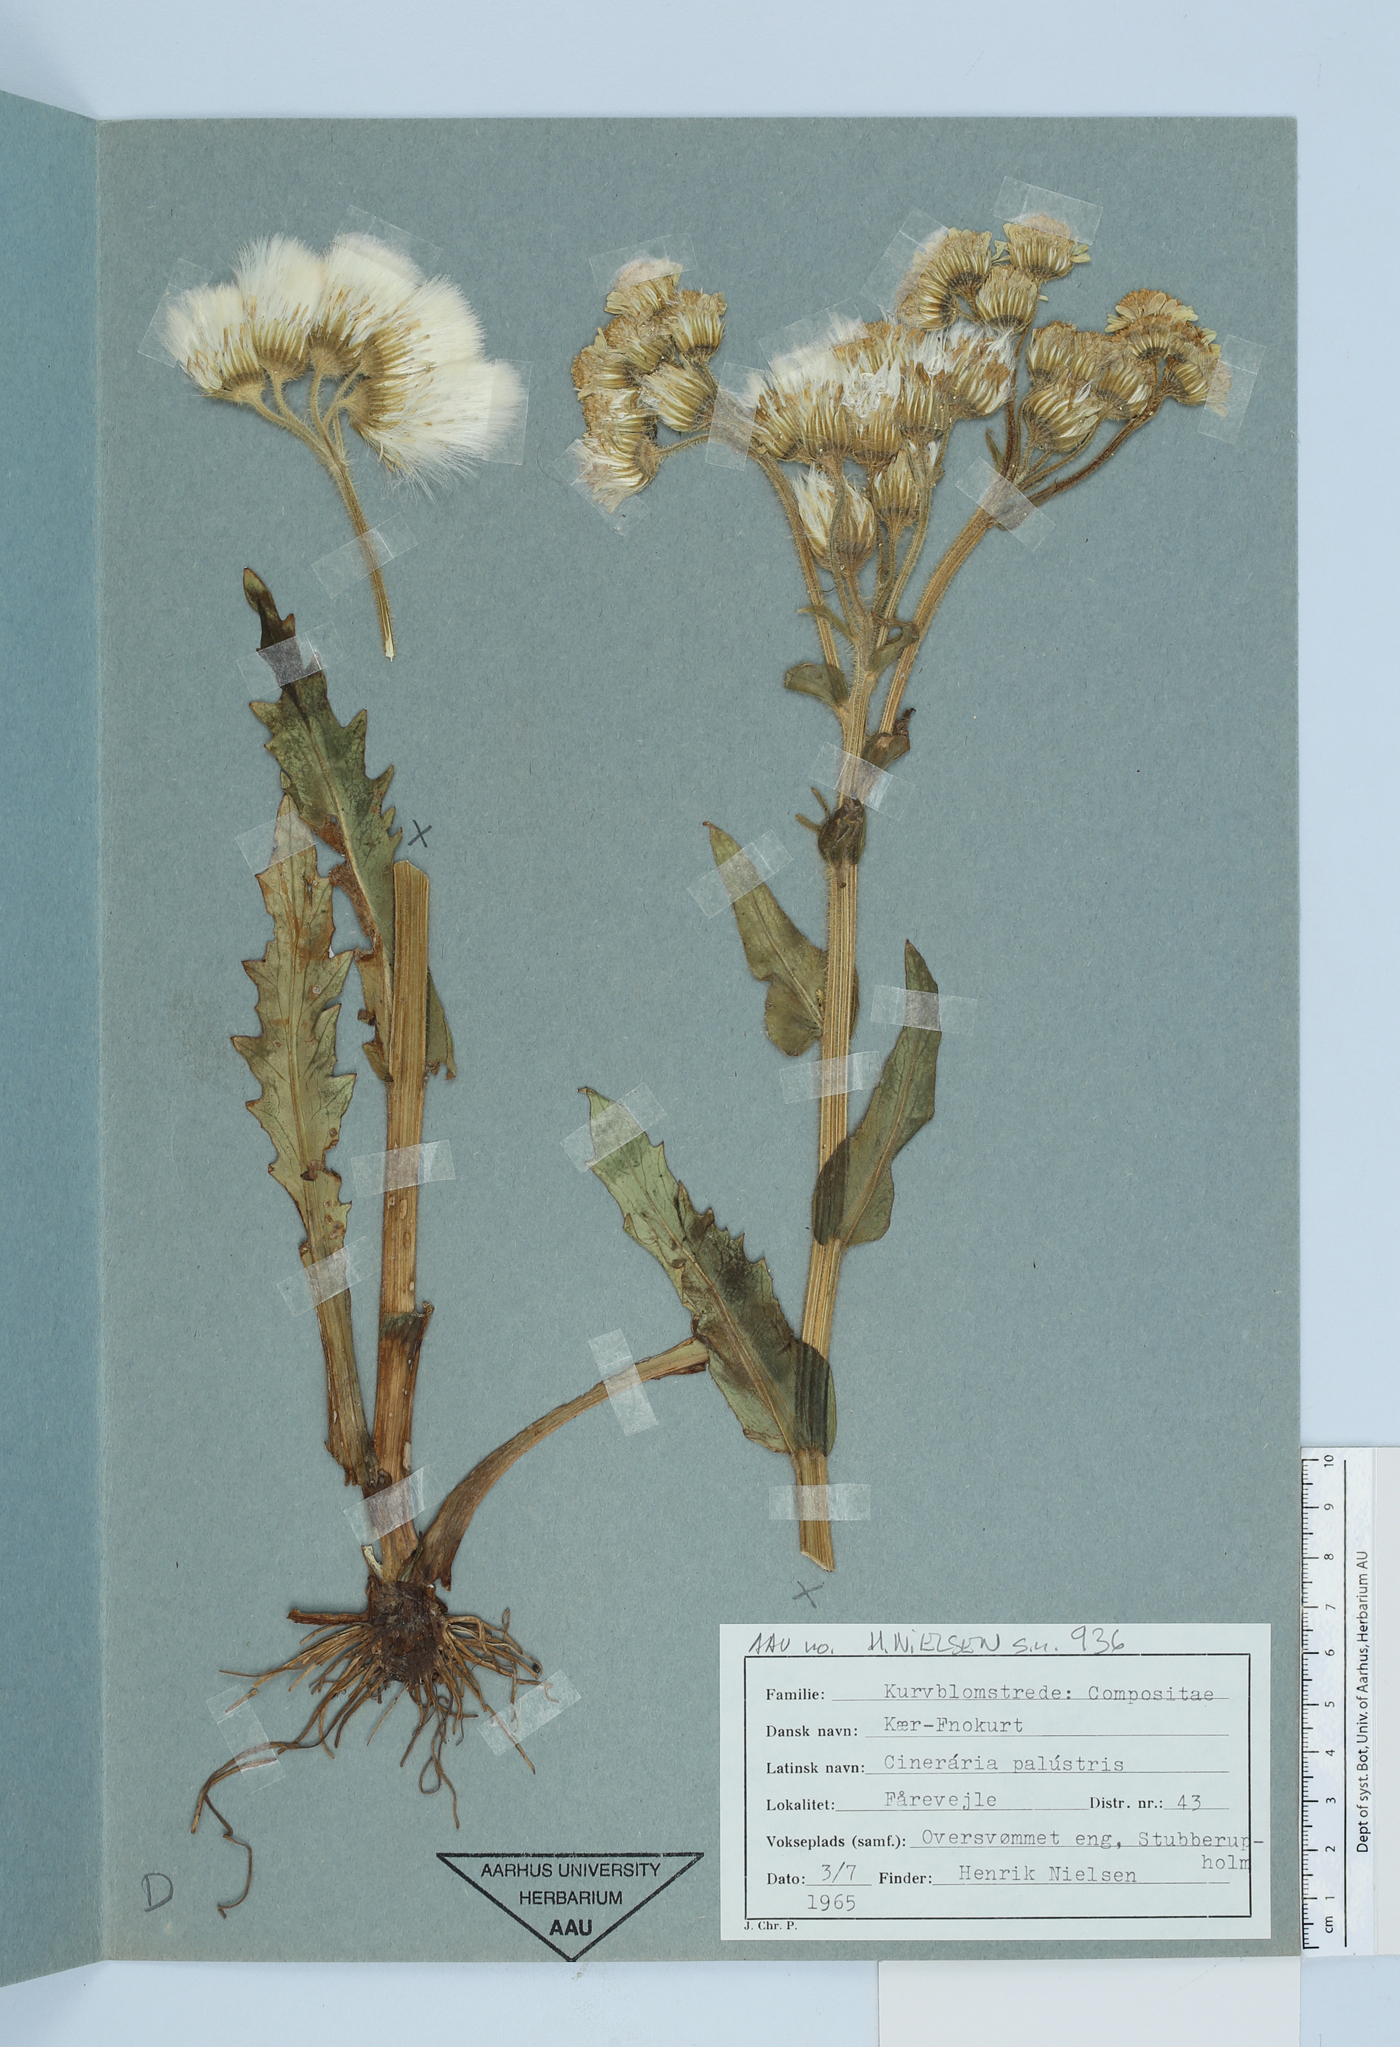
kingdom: Plantae
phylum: Tracheophyta
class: Magnoliopsida
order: Asterales
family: Asteraceae
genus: Tephroseris
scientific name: Tephroseris palustris
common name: Marsh fleawort
